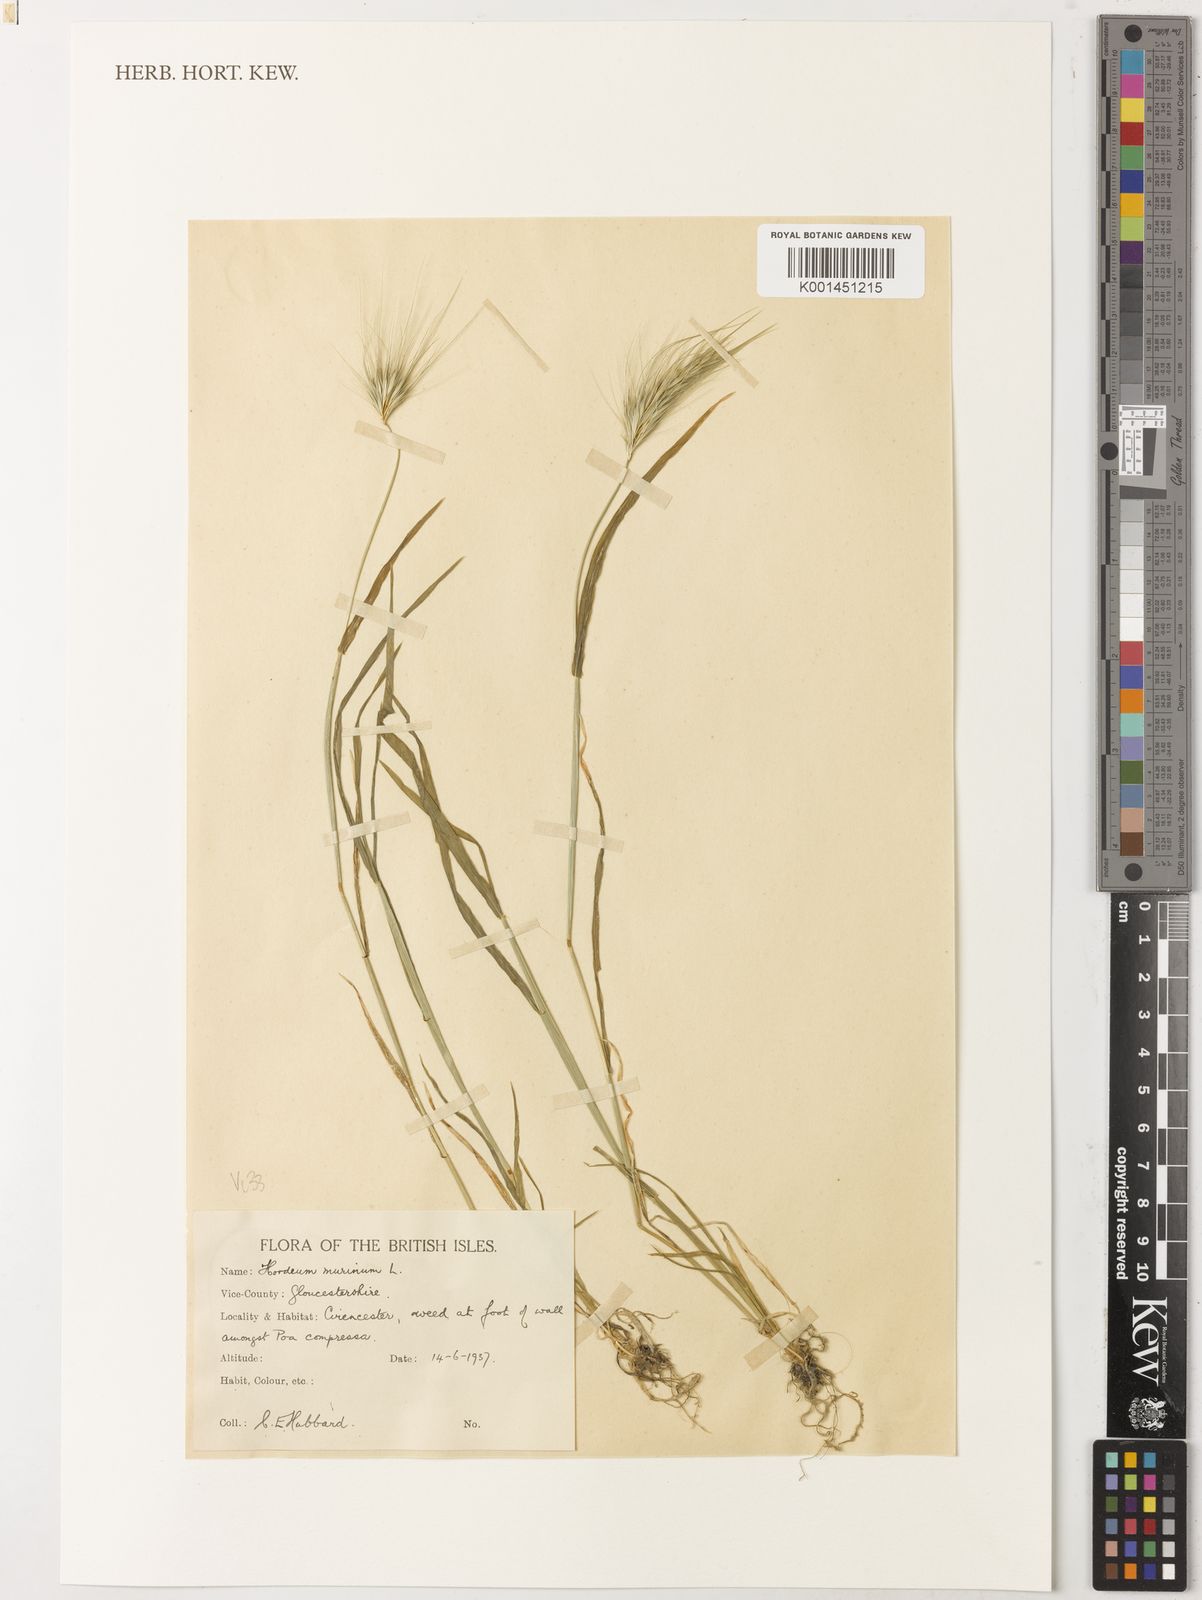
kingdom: Plantae
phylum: Tracheophyta
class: Liliopsida
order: Poales
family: Poaceae
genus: Hordeum
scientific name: Hordeum murinum
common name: Wall barley
